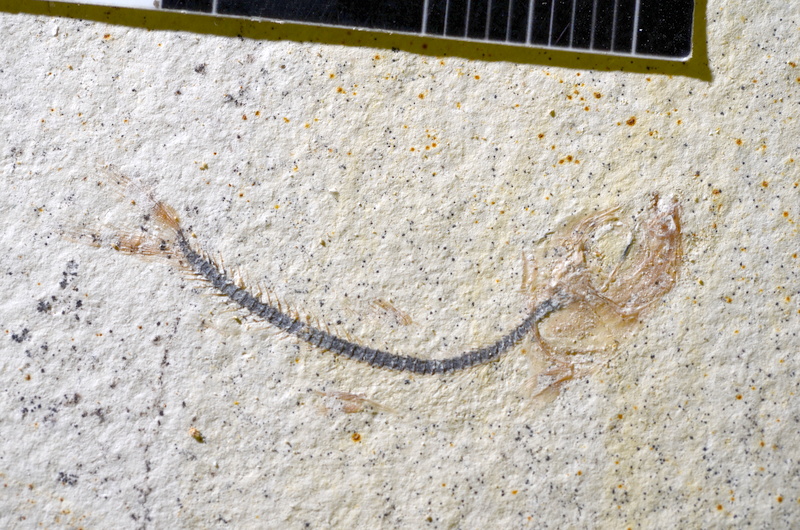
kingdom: Animalia
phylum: Chordata
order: Salmoniformes
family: Orthogonikleithridae
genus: Orthogonikleithrus
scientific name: Orthogonikleithrus hoelli
